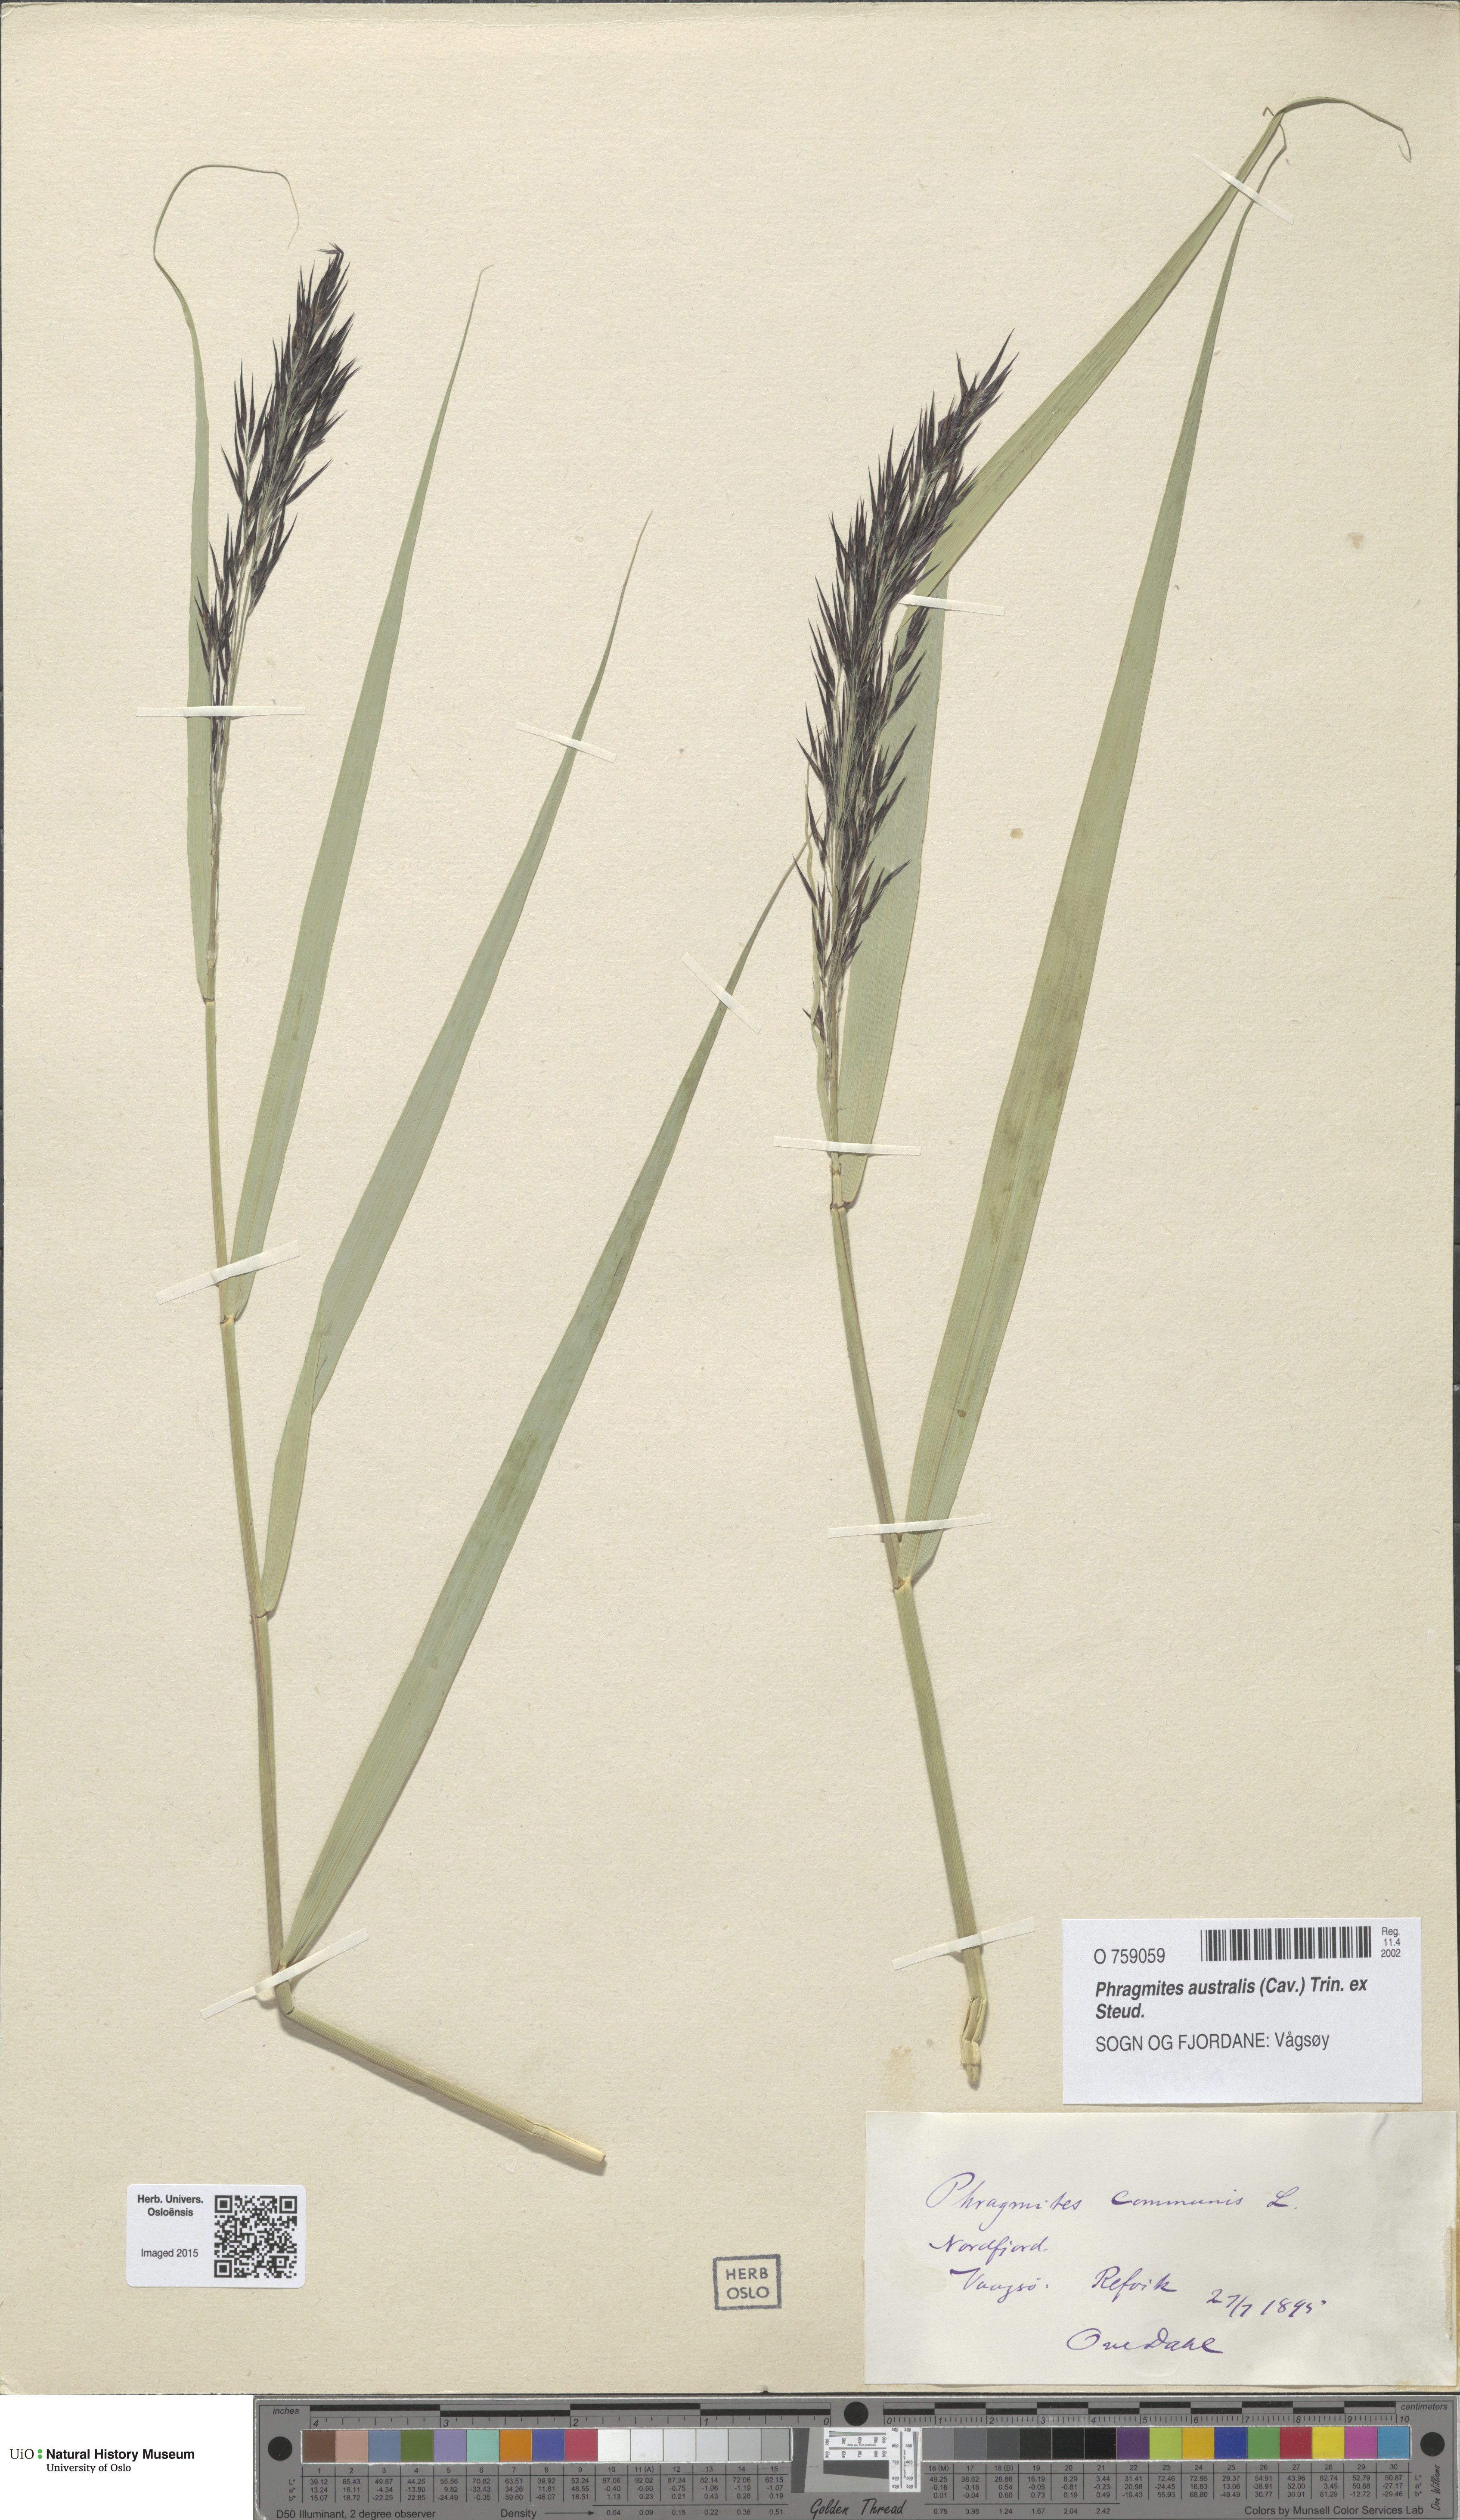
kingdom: Plantae
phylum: Tracheophyta
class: Liliopsida
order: Poales
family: Poaceae
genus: Phragmites
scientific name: Phragmites australis
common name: Common reed
